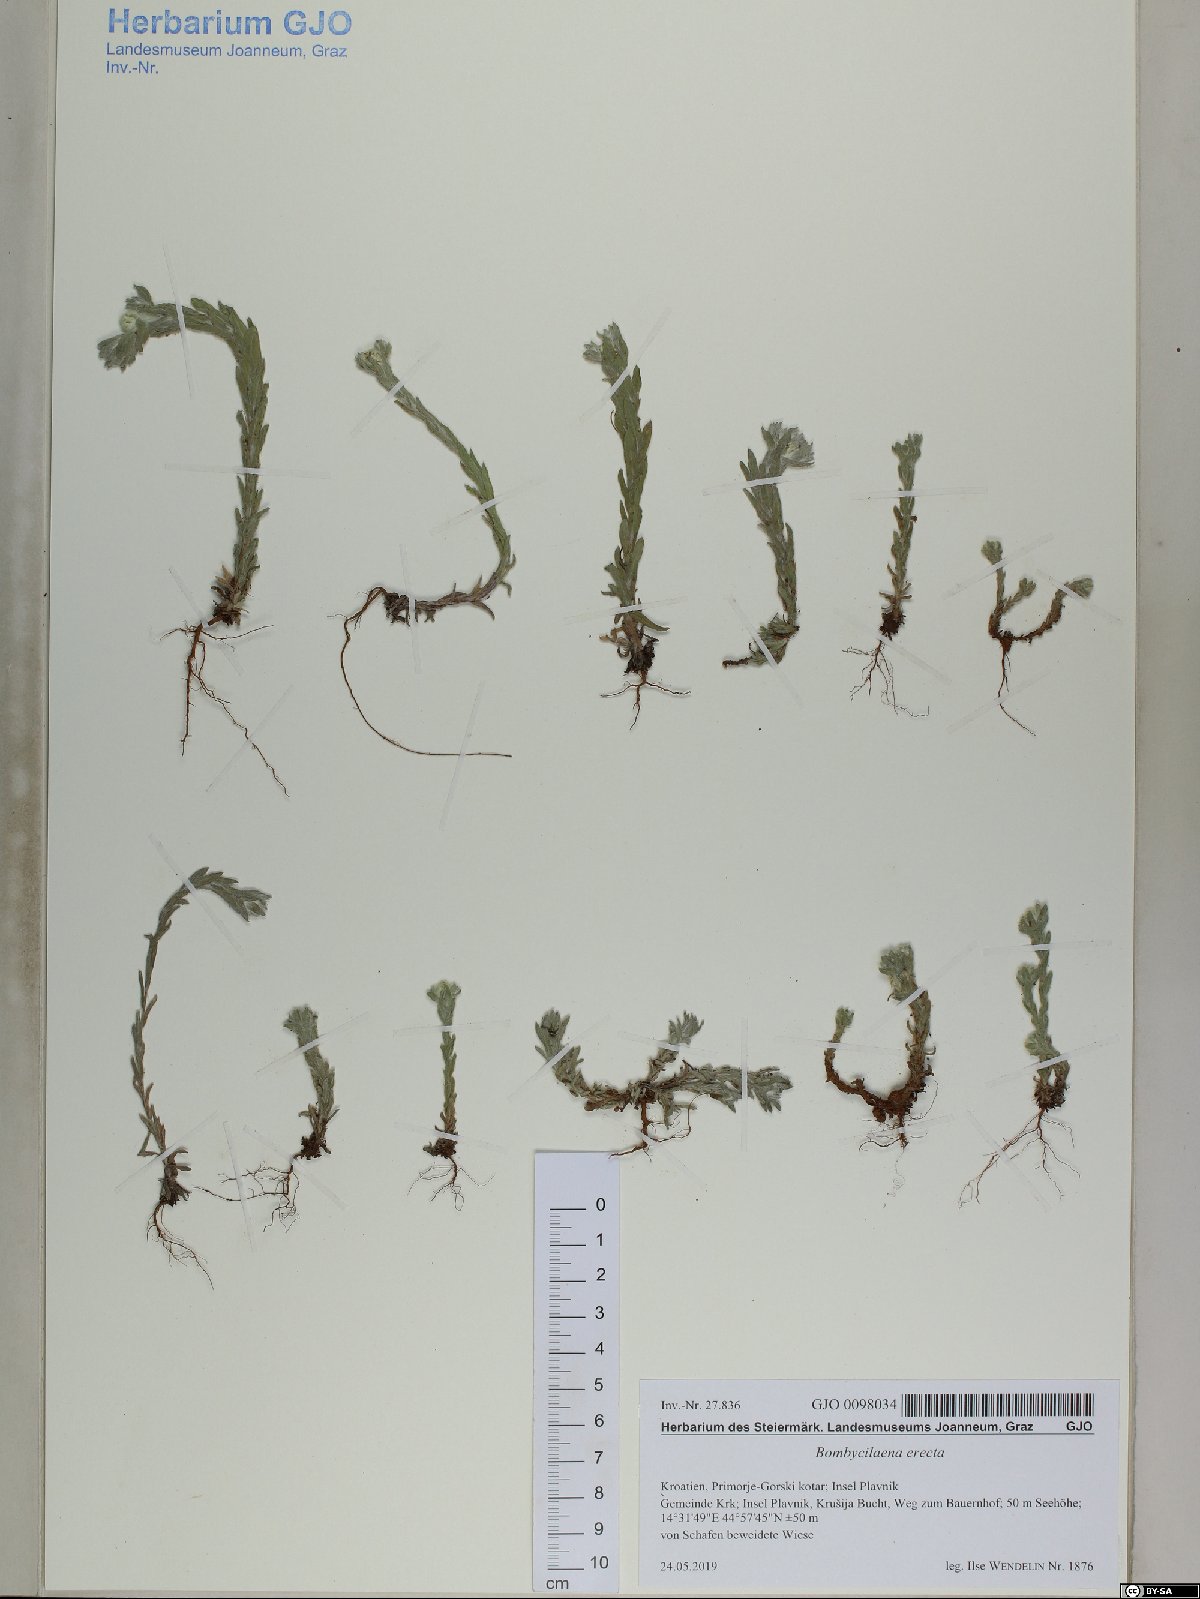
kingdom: Plantae
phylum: Tracheophyta
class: Magnoliopsida
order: Asterales
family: Asteraceae
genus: Bombycilaena
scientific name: Bombycilaena erecta
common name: Micropus
